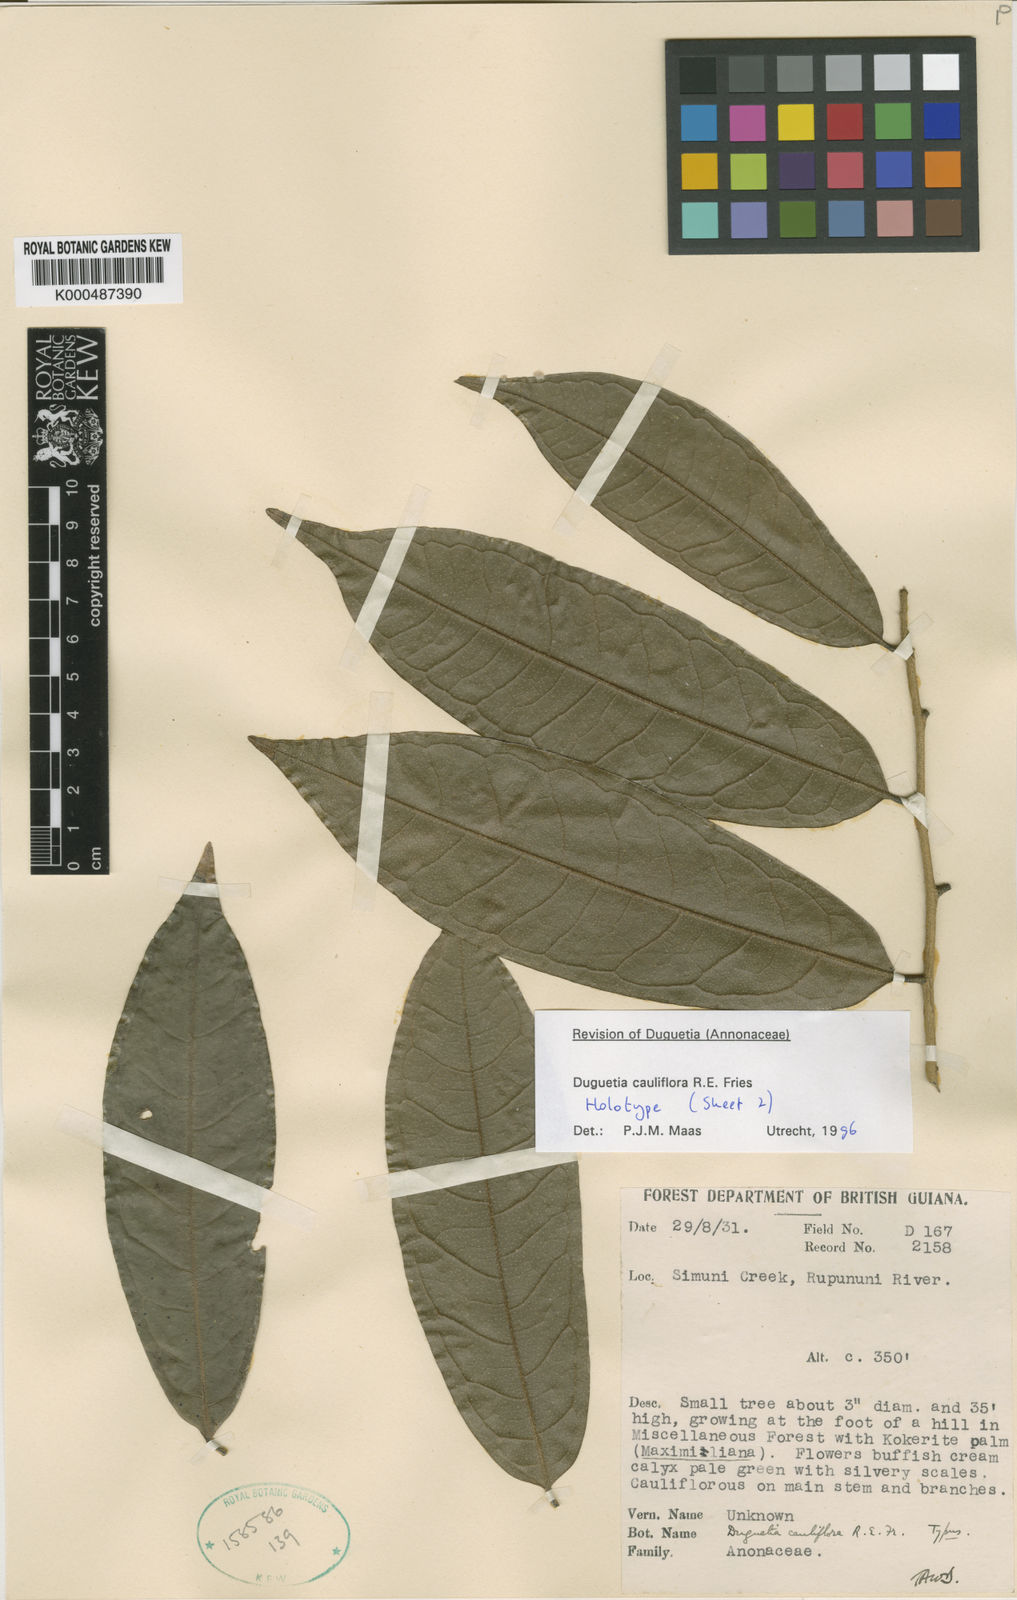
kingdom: Plantae
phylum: Tracheophyta
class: Magnoliopsida
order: Magnoliales
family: Annonaceae
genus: Duguetia
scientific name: Duguetia cauliflora
